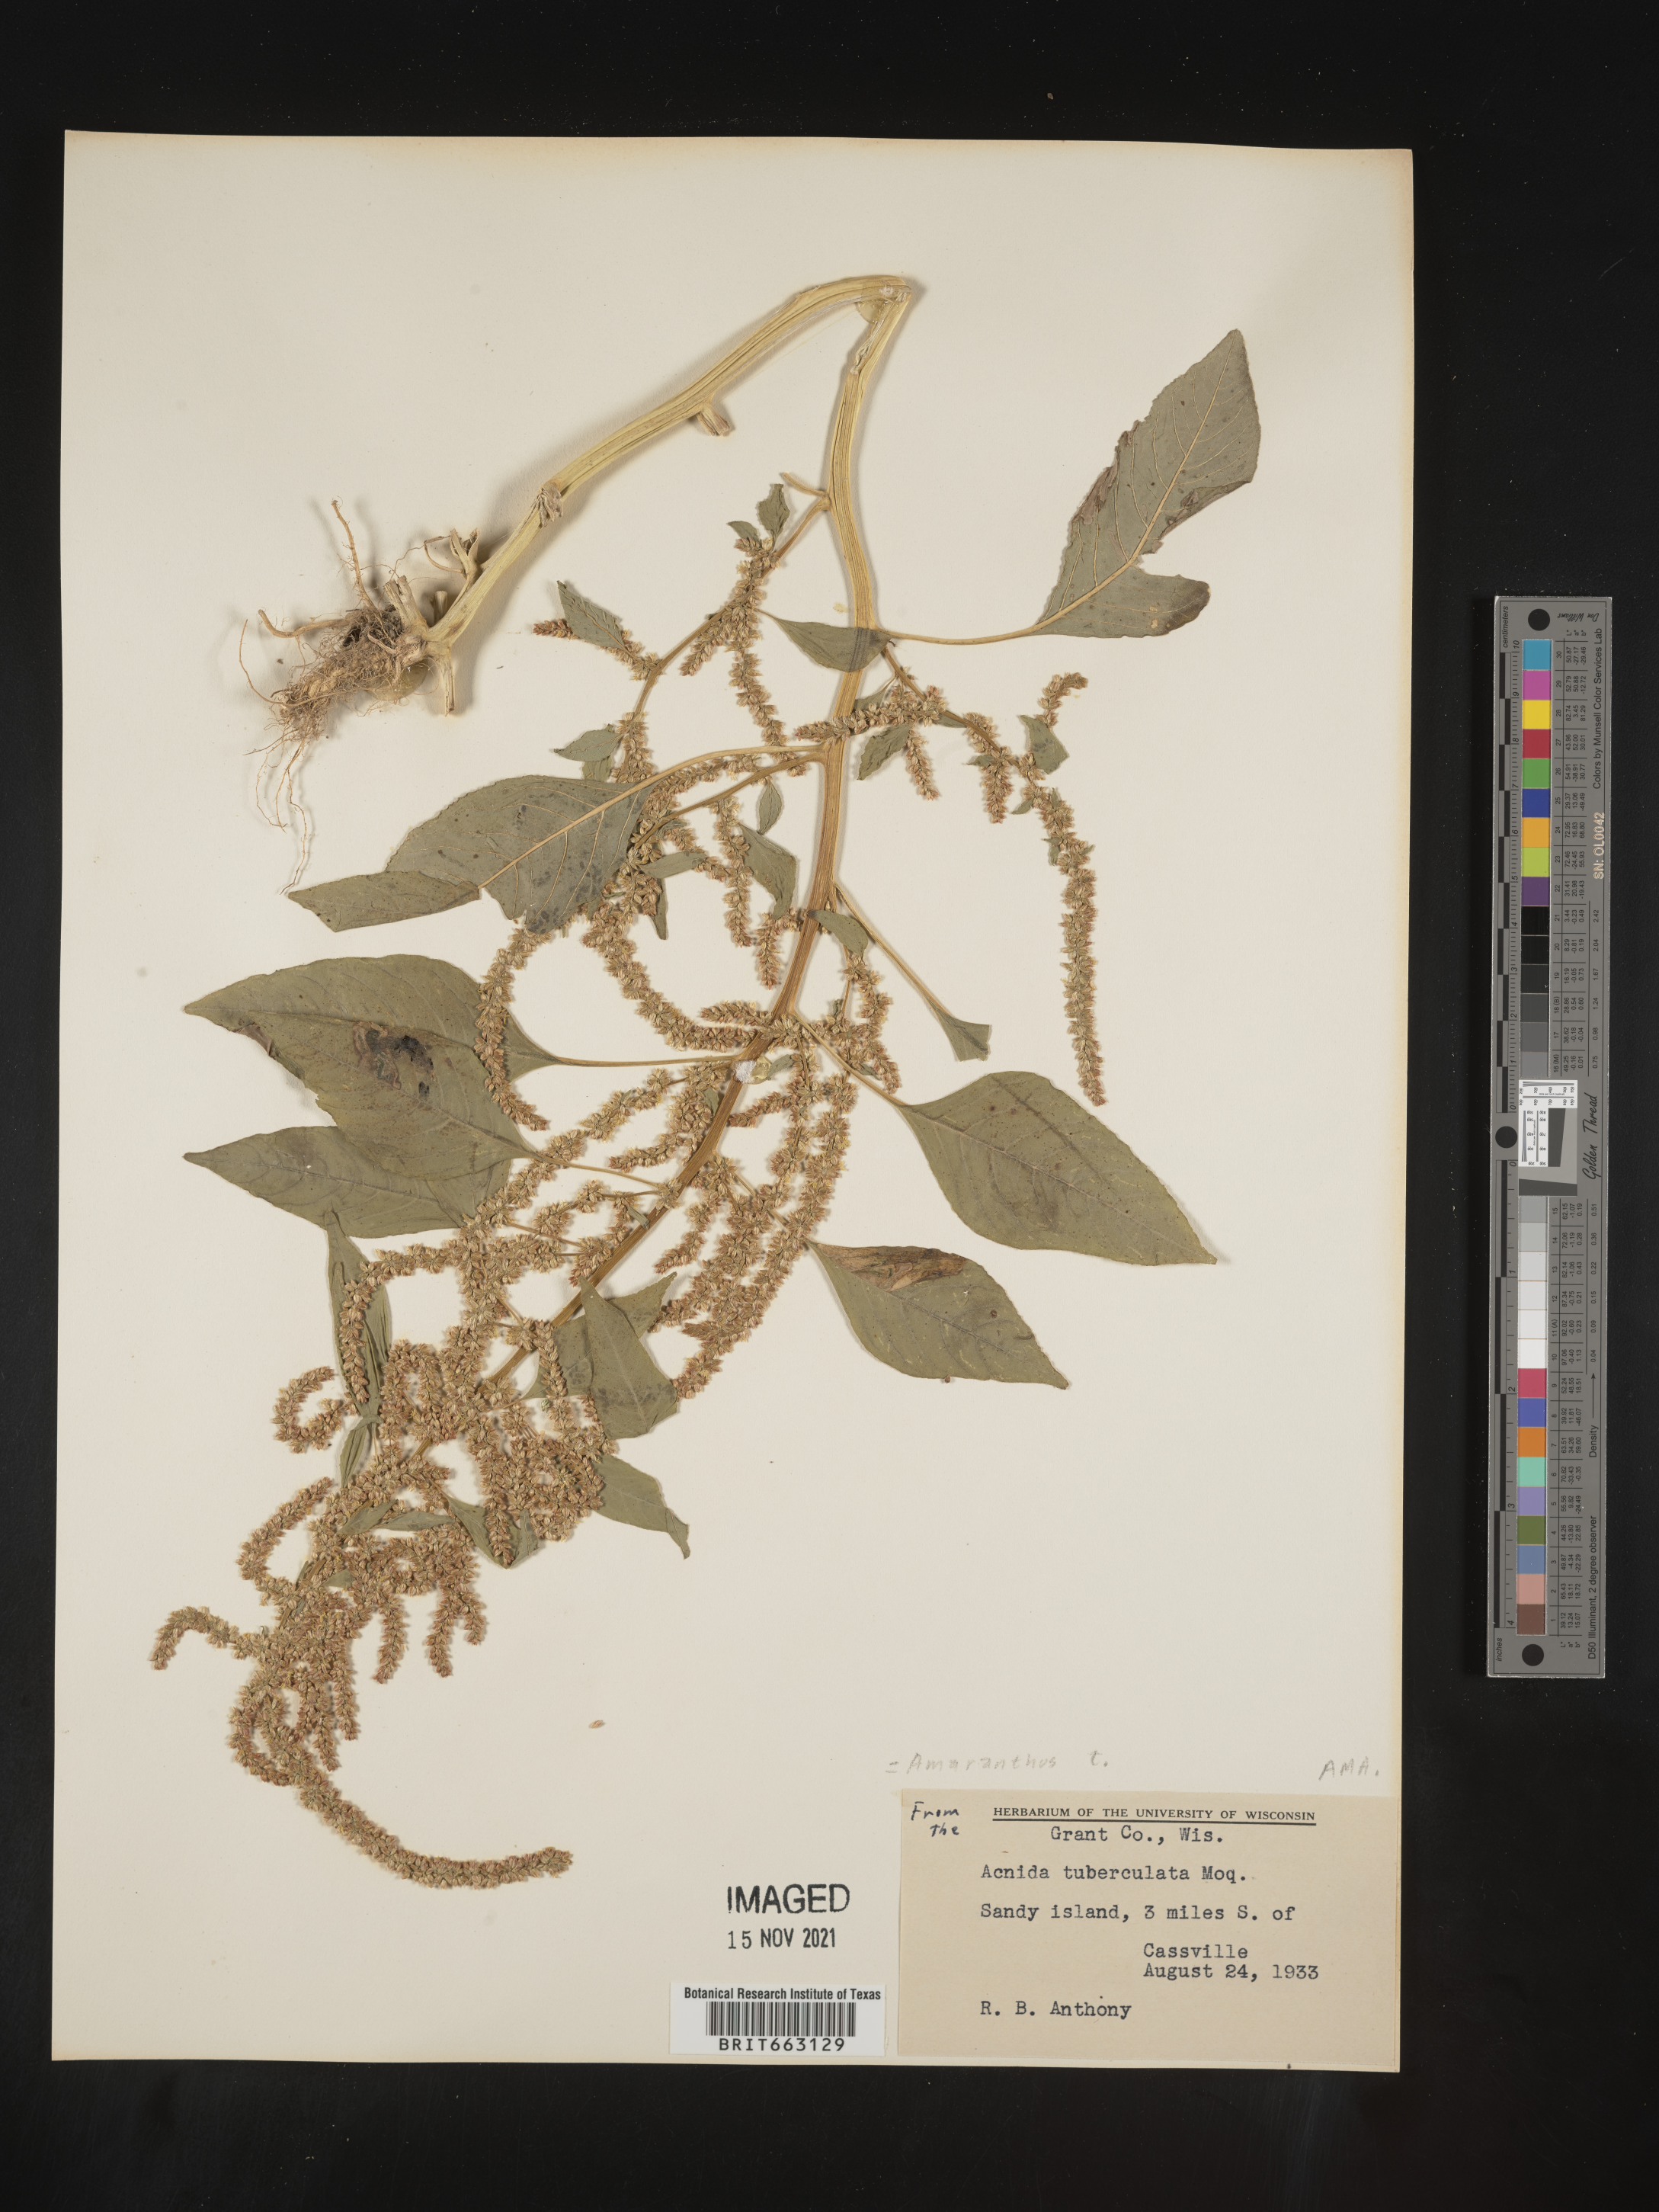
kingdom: Plantae
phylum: Tracheophyta
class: Magnoliopsida
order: Caryophyllales
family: Amaranthaceae
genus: Amaranthus
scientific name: Amaranthus tuberculatus
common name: Rough-fruit amaranth
